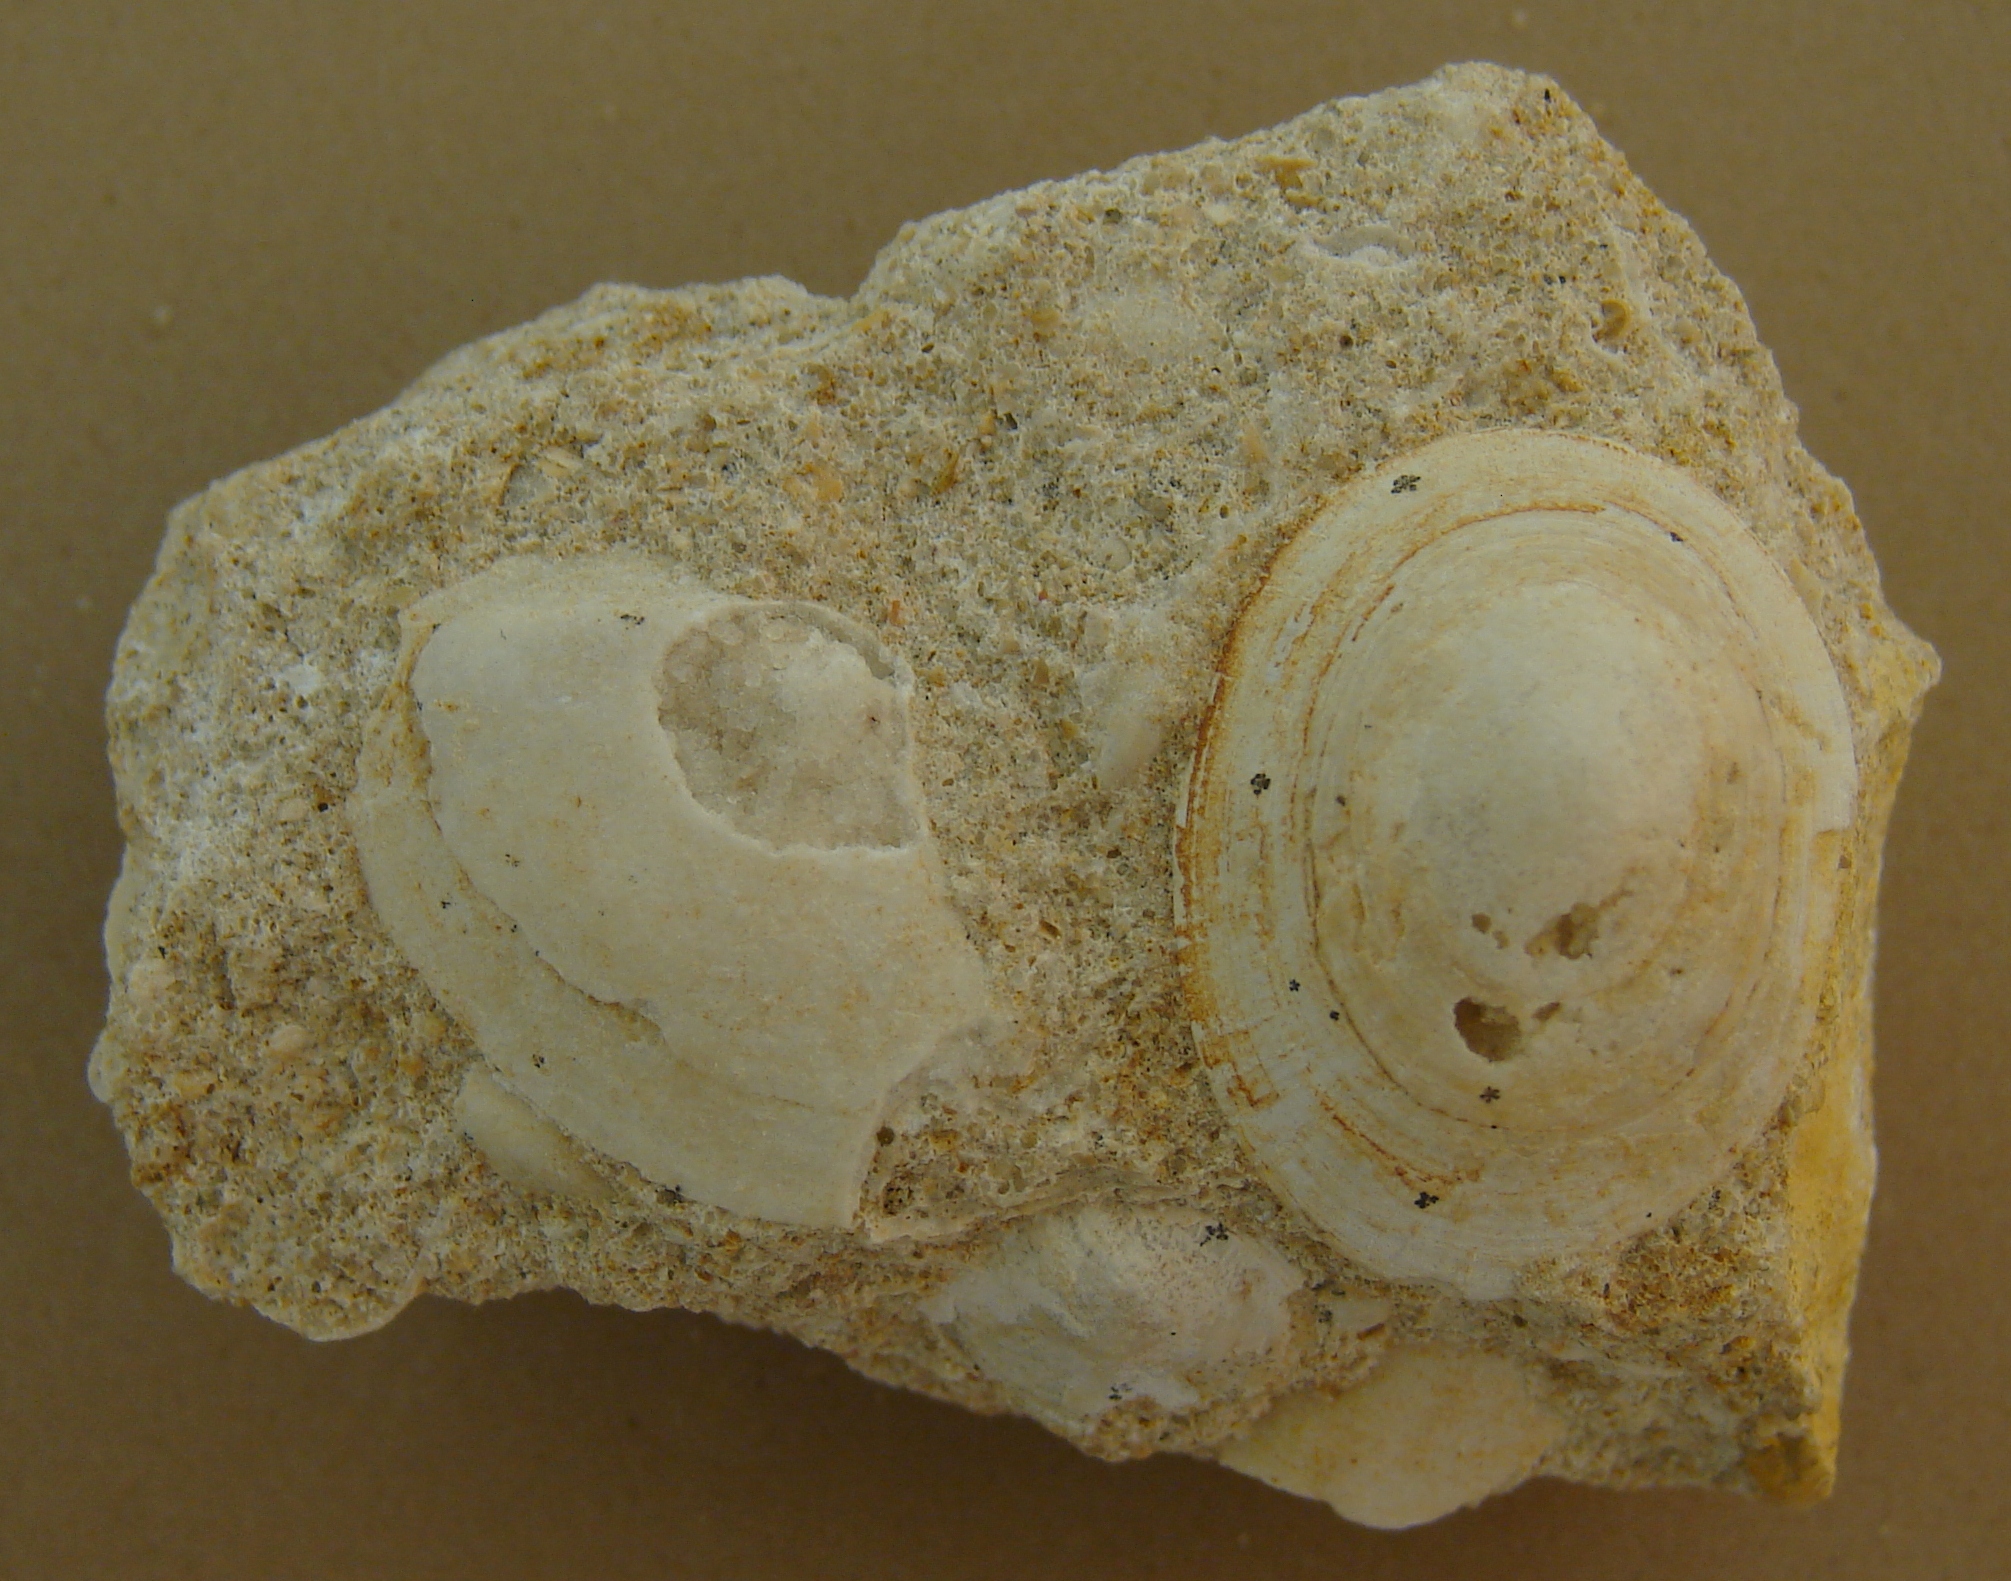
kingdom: Animalia
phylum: Mollusca
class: Gastropoda
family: Acmaeadae
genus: Scurriopsis
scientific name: Scurriopsis Patella hettangiensis
